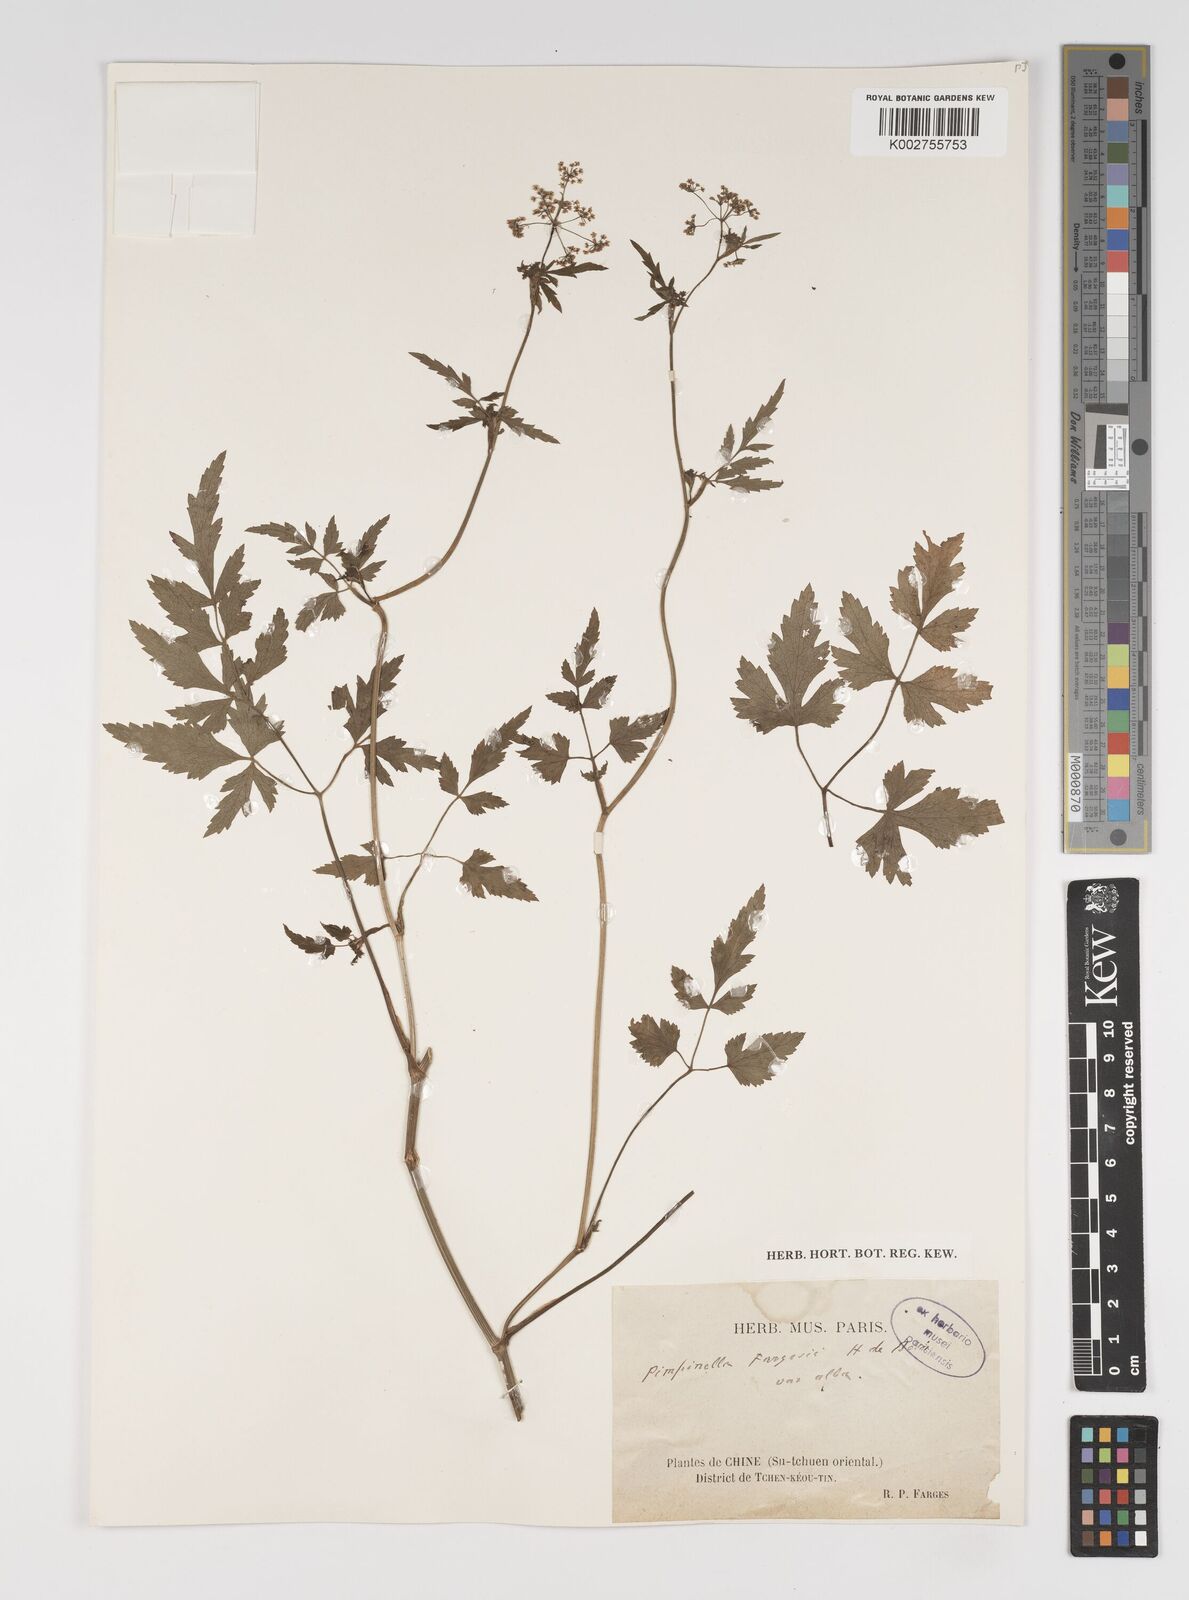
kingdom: Plantae
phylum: Tracheophyta
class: Magnoliopsida
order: Apiales
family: Apiaceae
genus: Pimpinella
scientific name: Pimpinella fargesii
